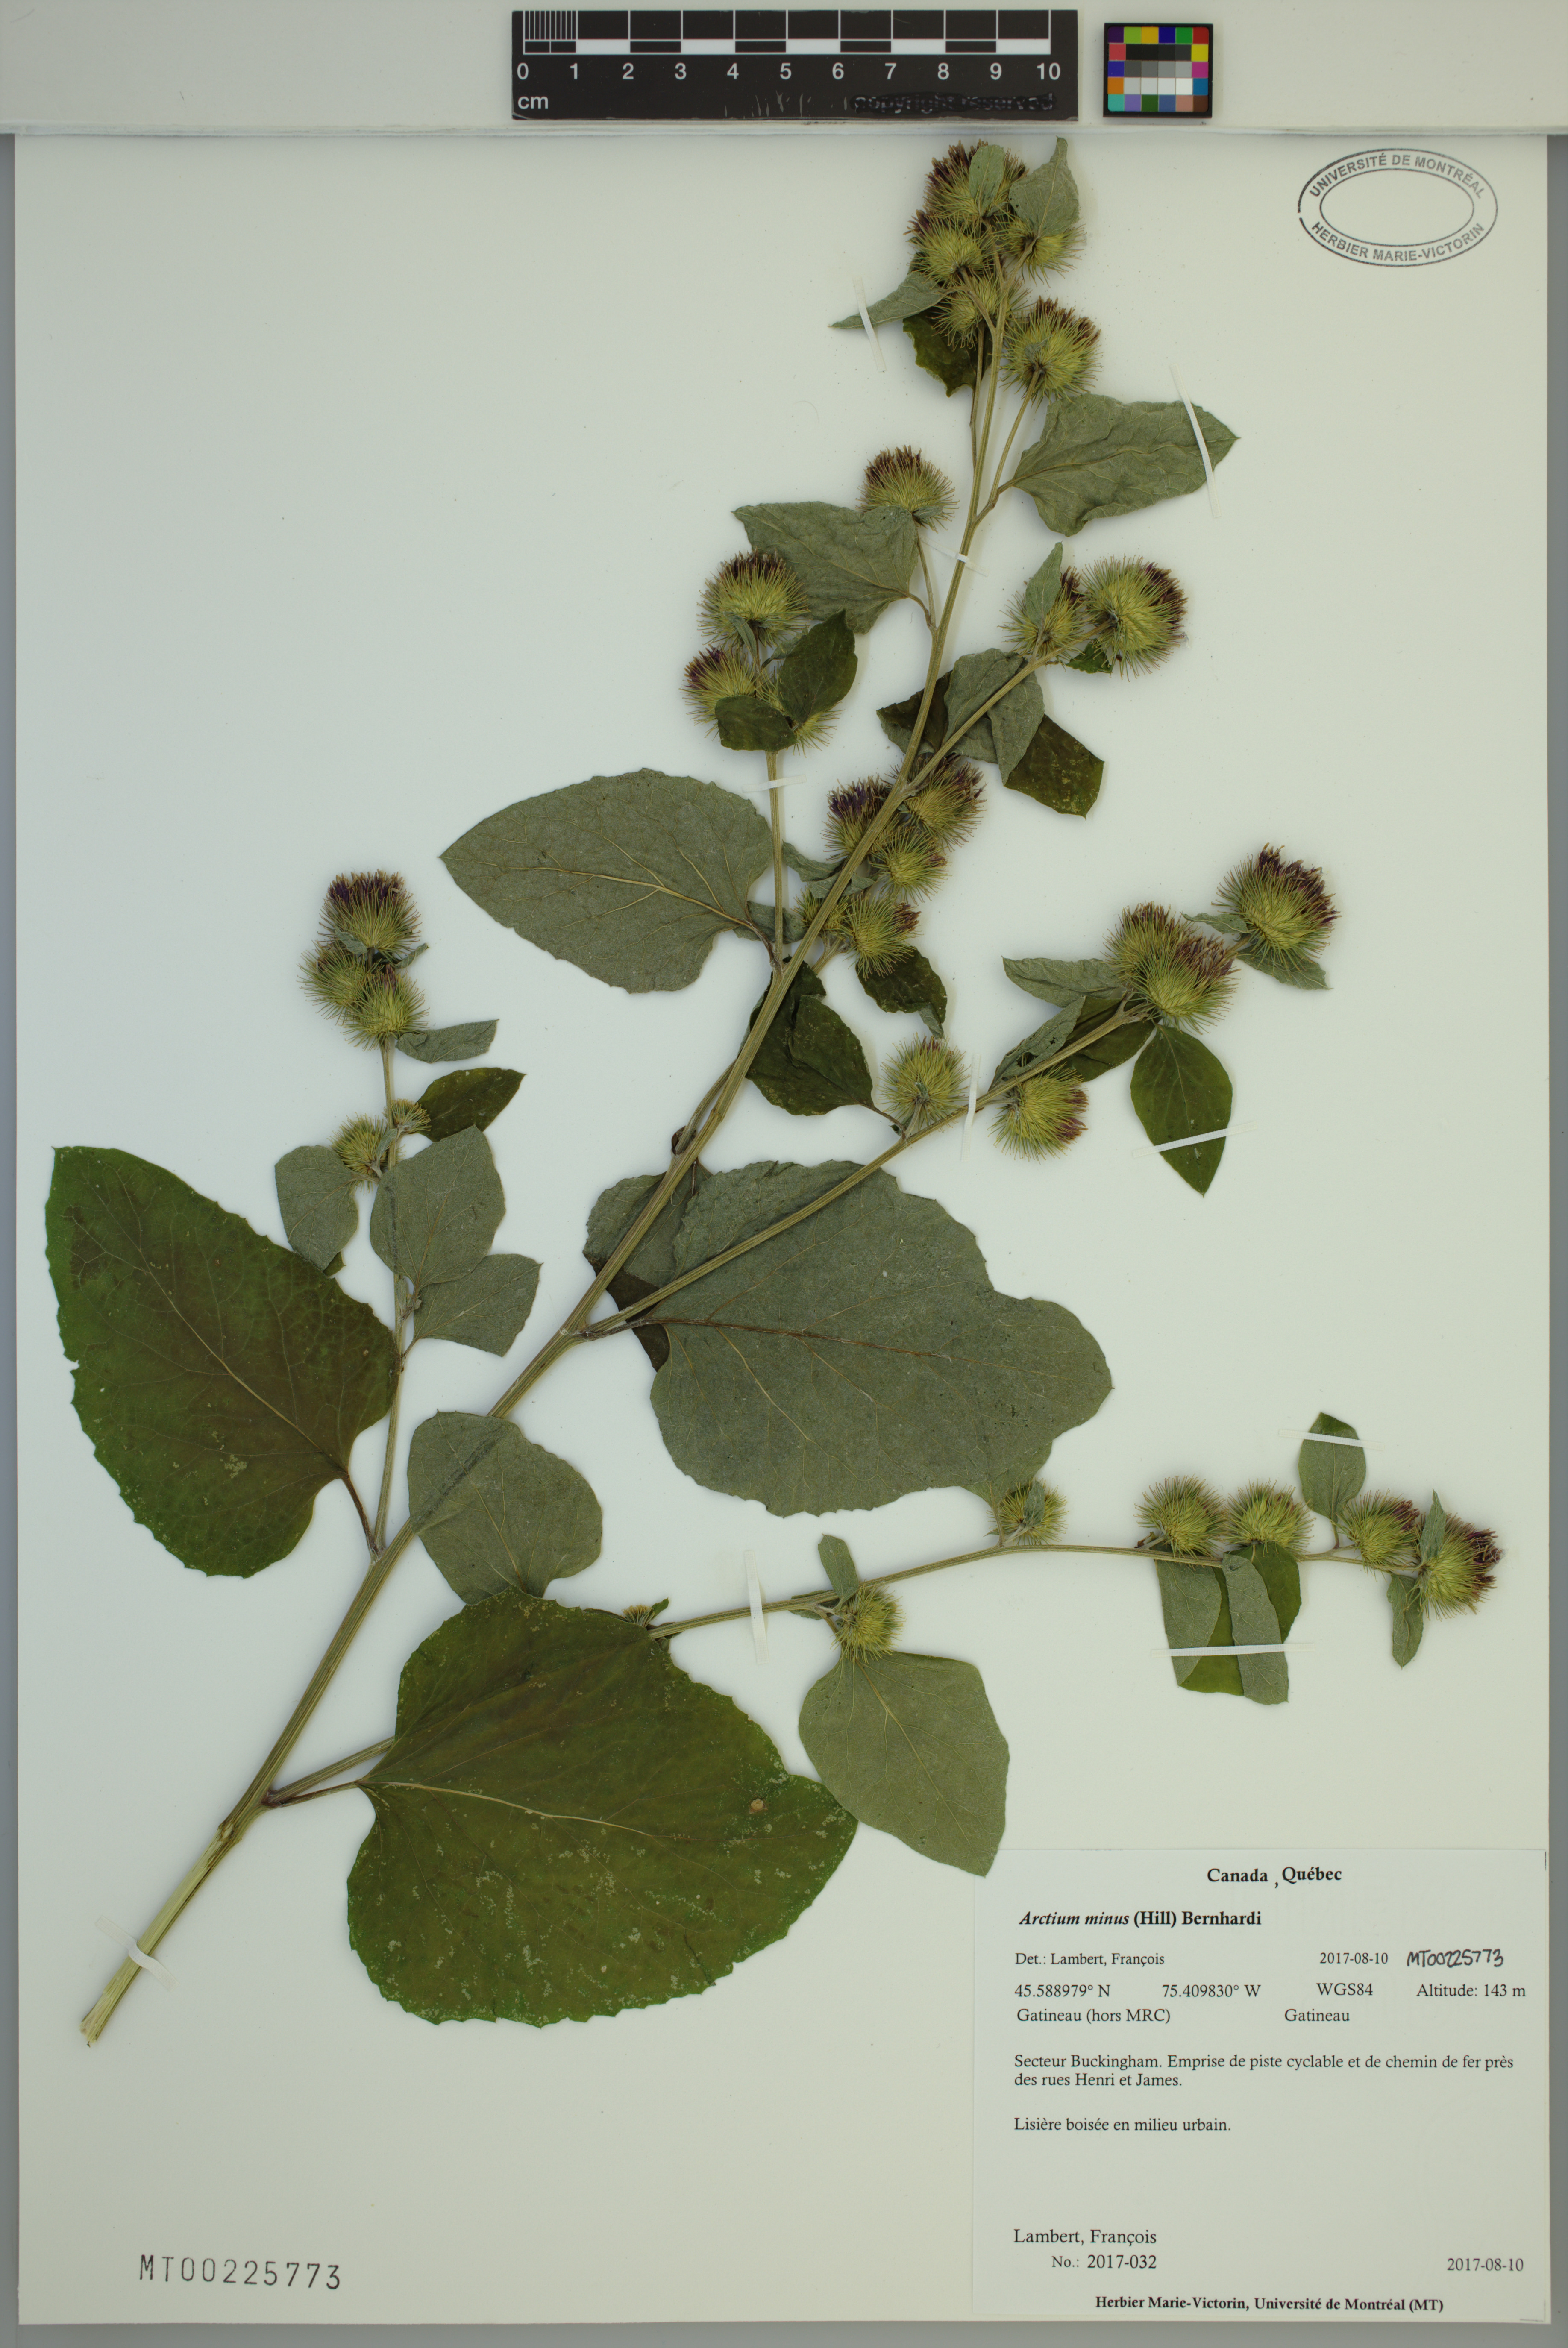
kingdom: Plantae
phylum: Tracheophyta
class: Magnoliopsida
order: Asterales
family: Asteraceae
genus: Arctium
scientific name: Arctium minus
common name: Lesser burdock
